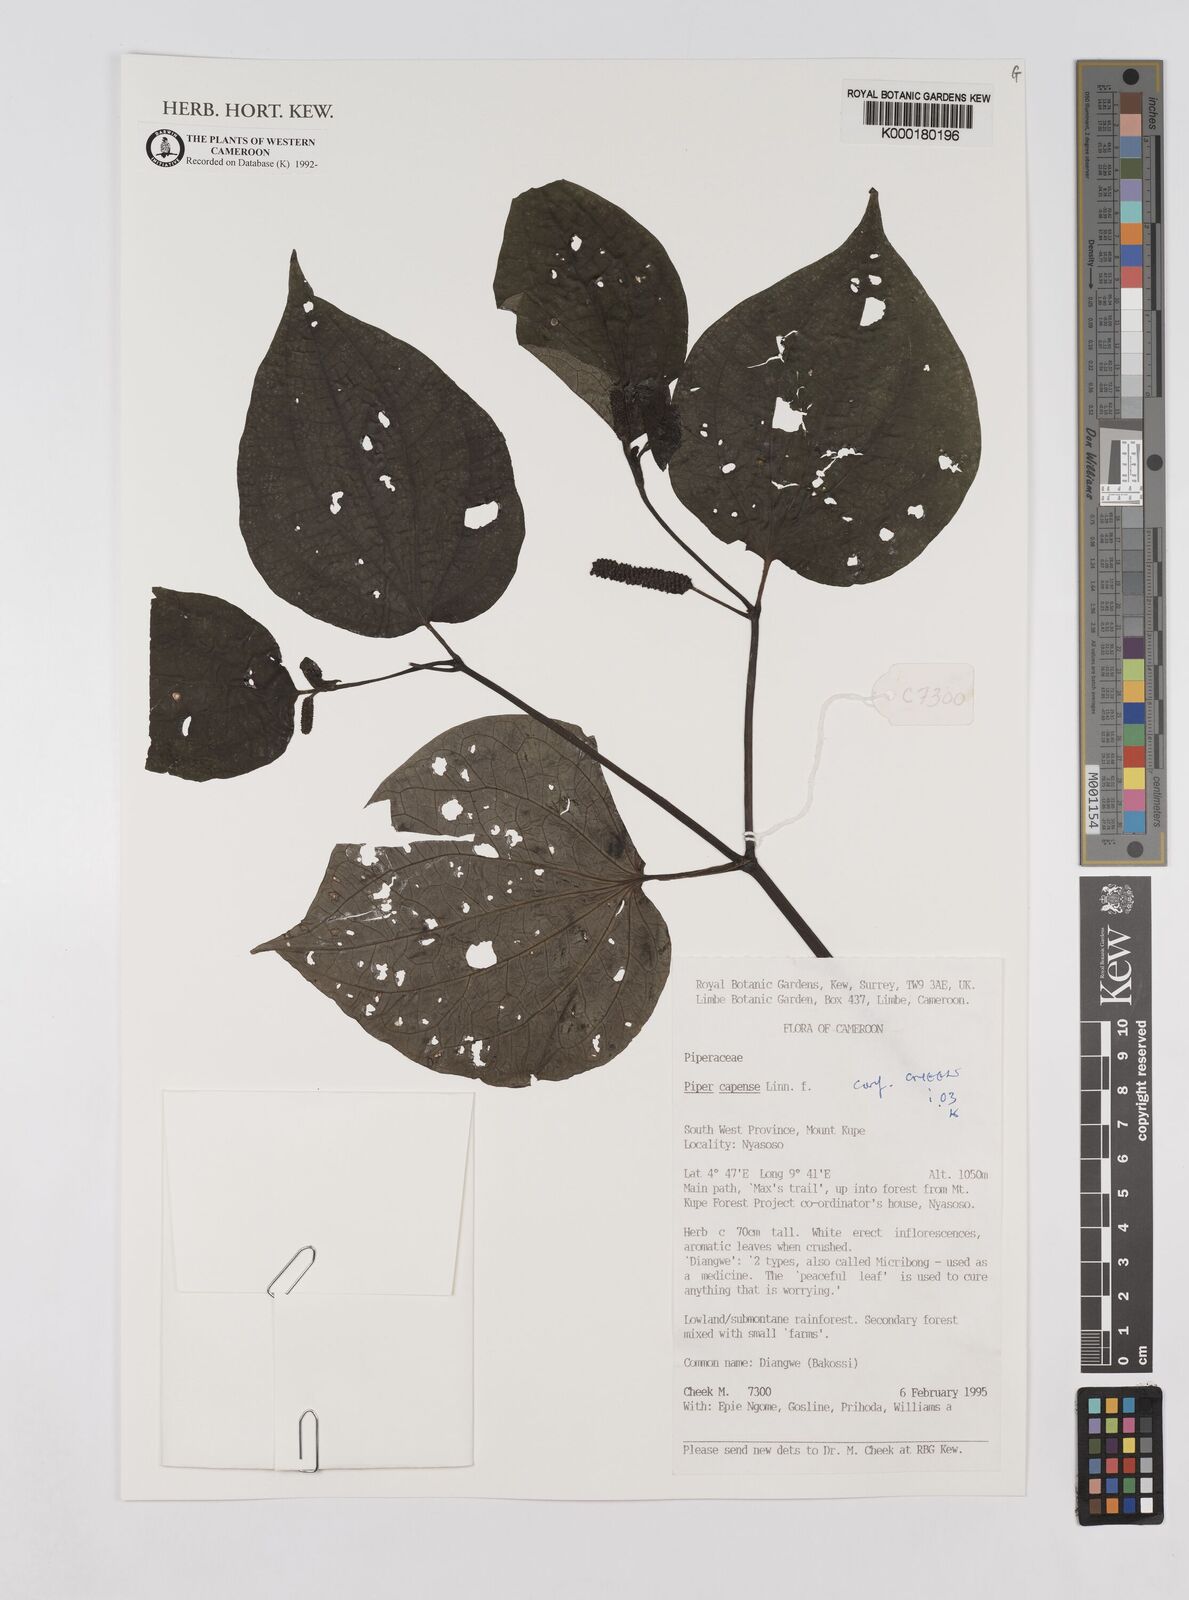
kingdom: Plantae
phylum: Tracheophyta
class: Magnoliopsida
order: Piperales
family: Piperaceae
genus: Piper
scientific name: Piper capense
